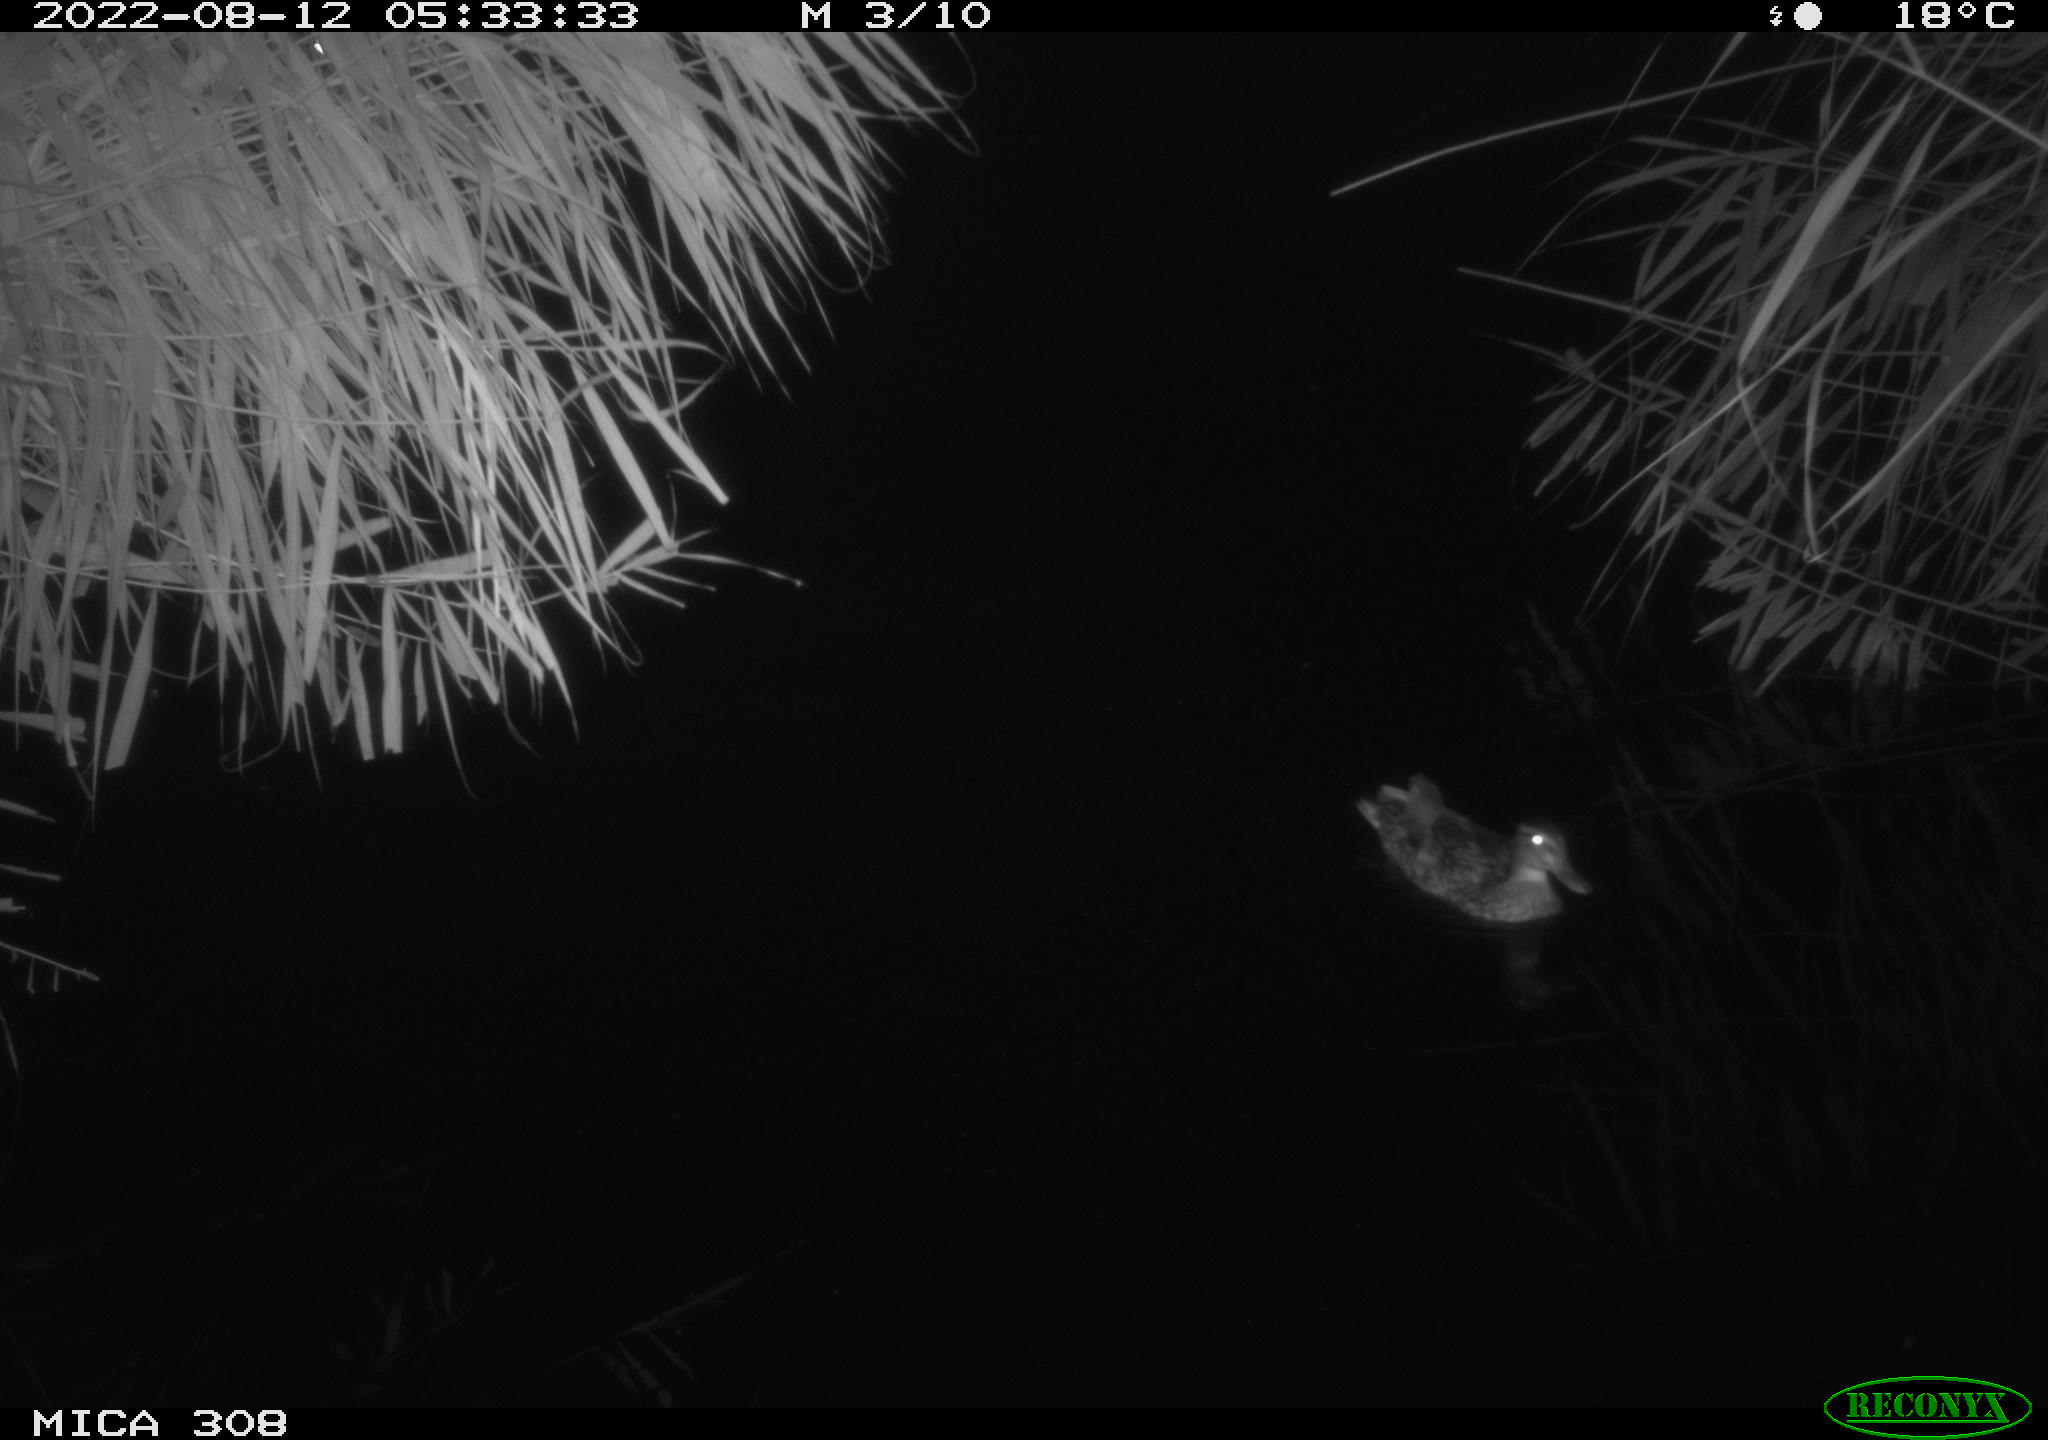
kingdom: Animalia
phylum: Chordata
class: Aves
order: Anseriformes
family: Anatidae
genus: Anas
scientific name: Anas platyrhynchos
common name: Mallard
